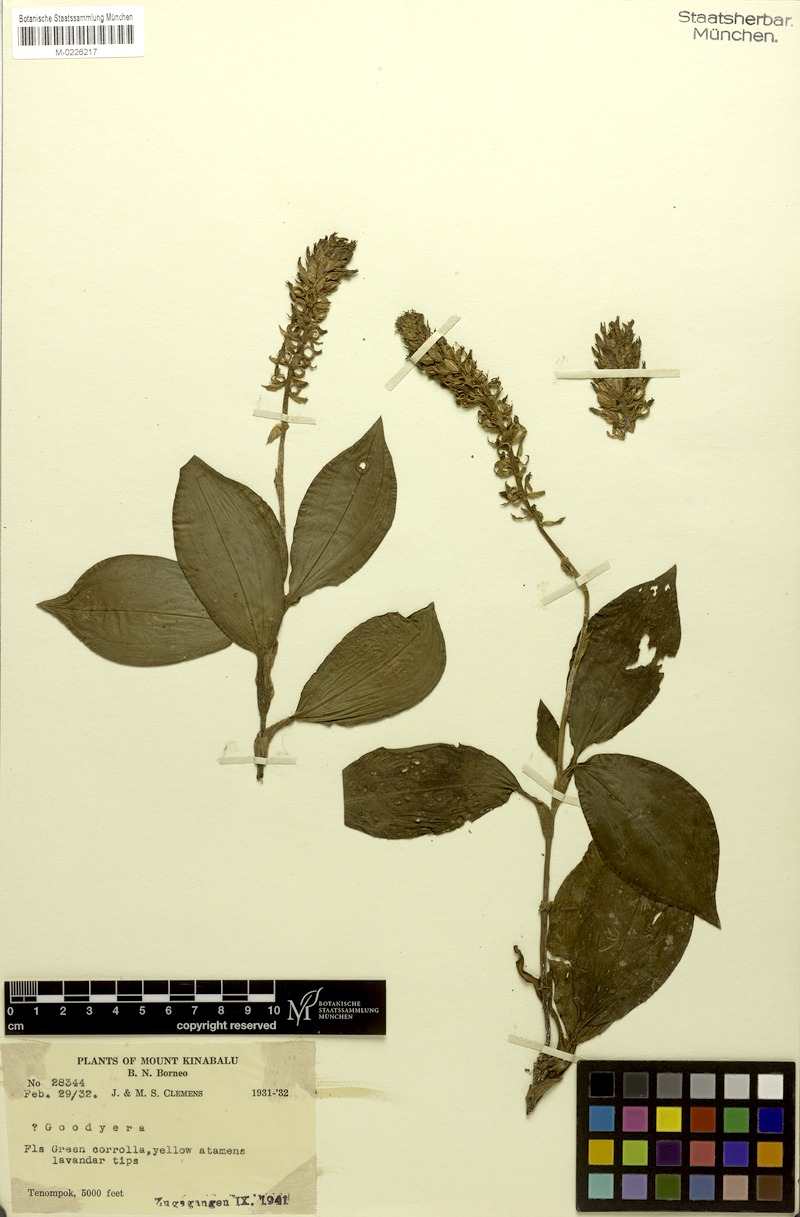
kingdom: Plantae
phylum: Tracheophyta
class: Liliopsida
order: Asparagales
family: Orchidaceae
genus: Vrydagzynea
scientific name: Vrydagzynea grandis
